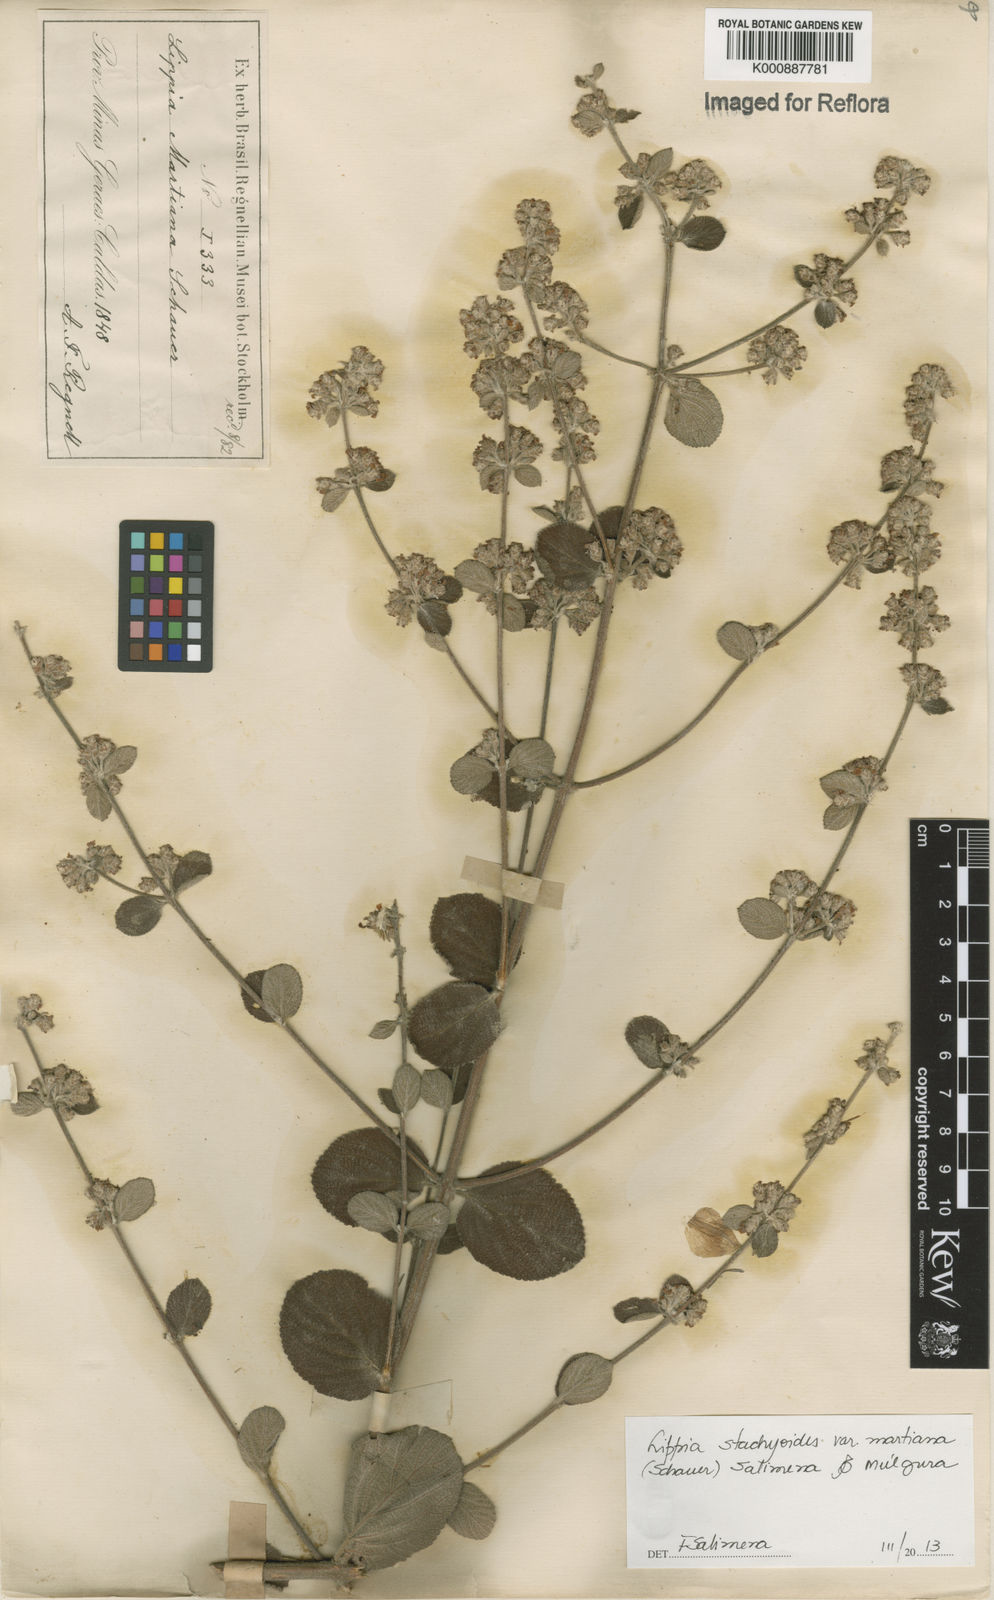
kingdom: Plantae
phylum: Tracheophyta
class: Magnoliopsida
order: Lamiales
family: Verbenaceae
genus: Lippia
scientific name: Lippia stachyoides
